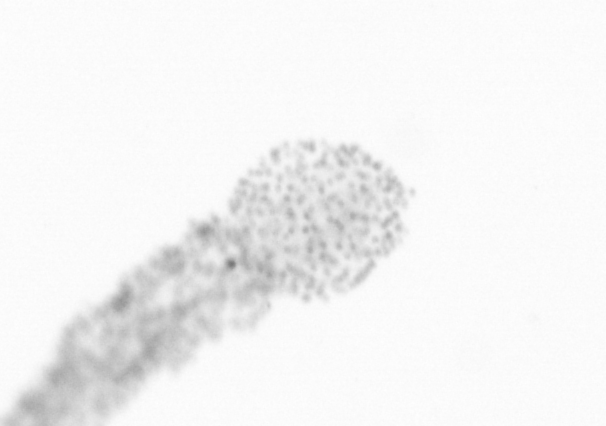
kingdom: Chromista
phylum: Ochrophyta
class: Bacillariophyceae
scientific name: Bacillariophyceae
